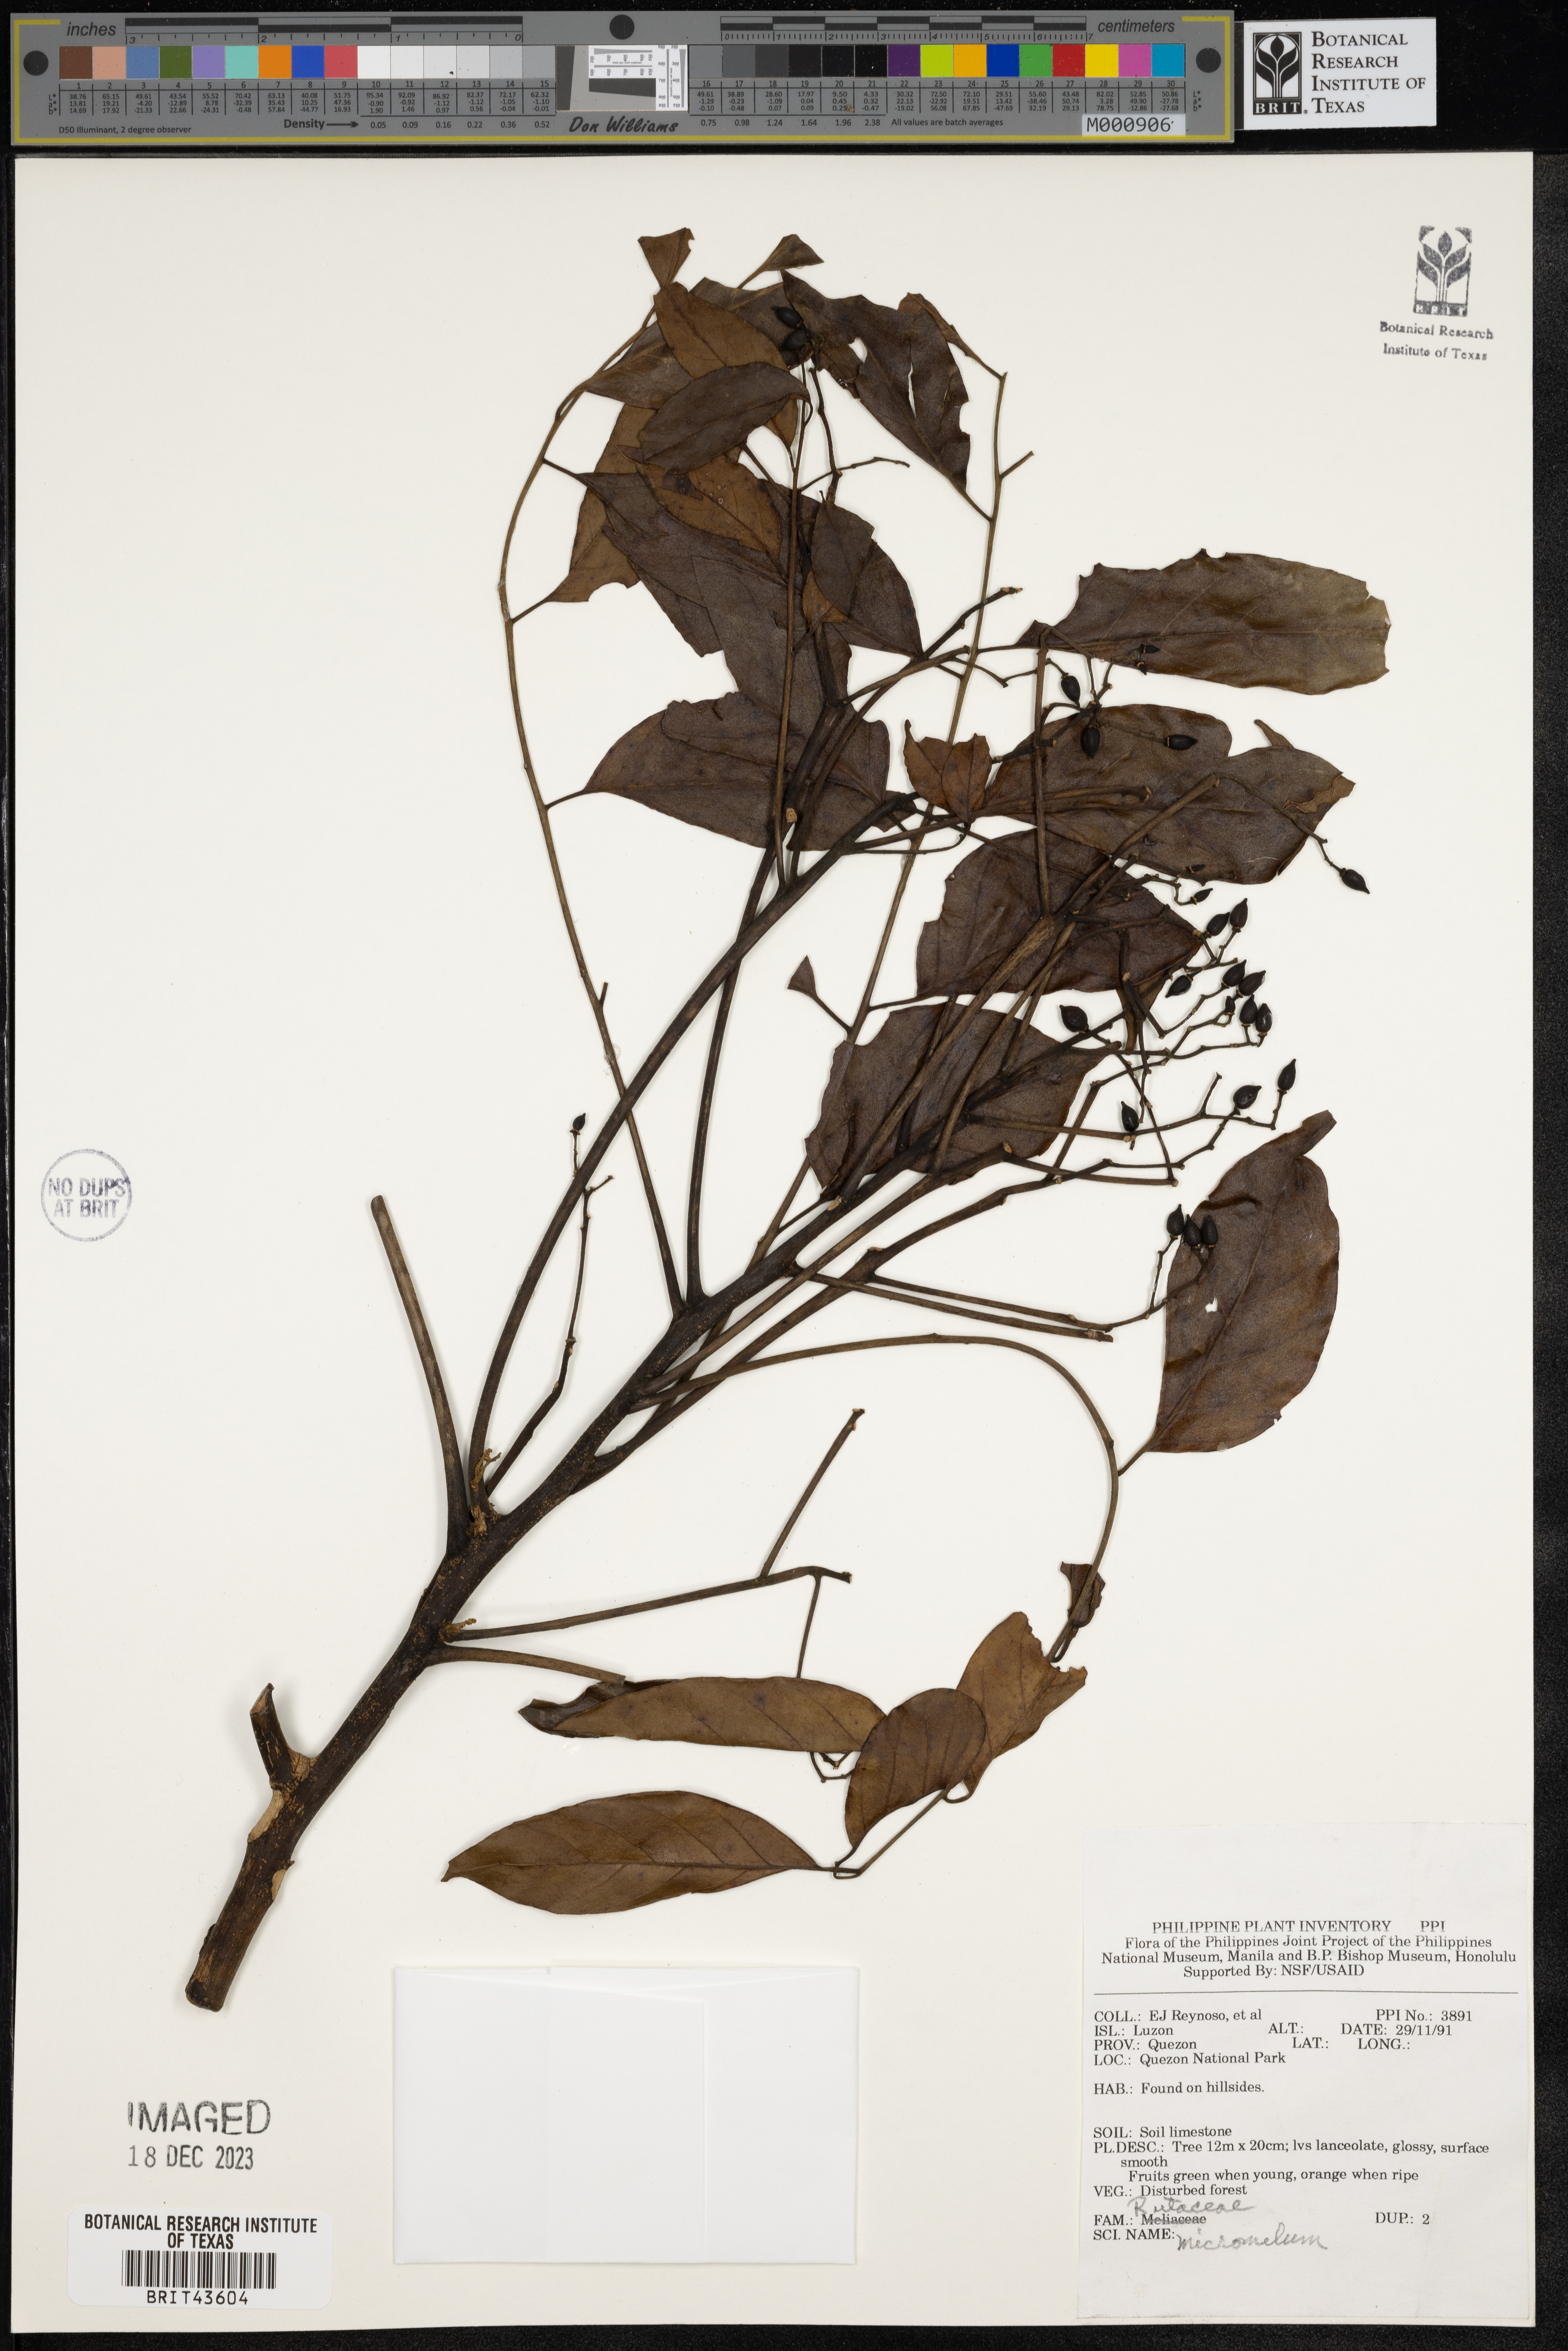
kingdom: Plantae
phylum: Tracheophyta
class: Magnoliopsida
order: Sapindales
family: Rutaceae
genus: Micromelum
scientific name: Micromelum
